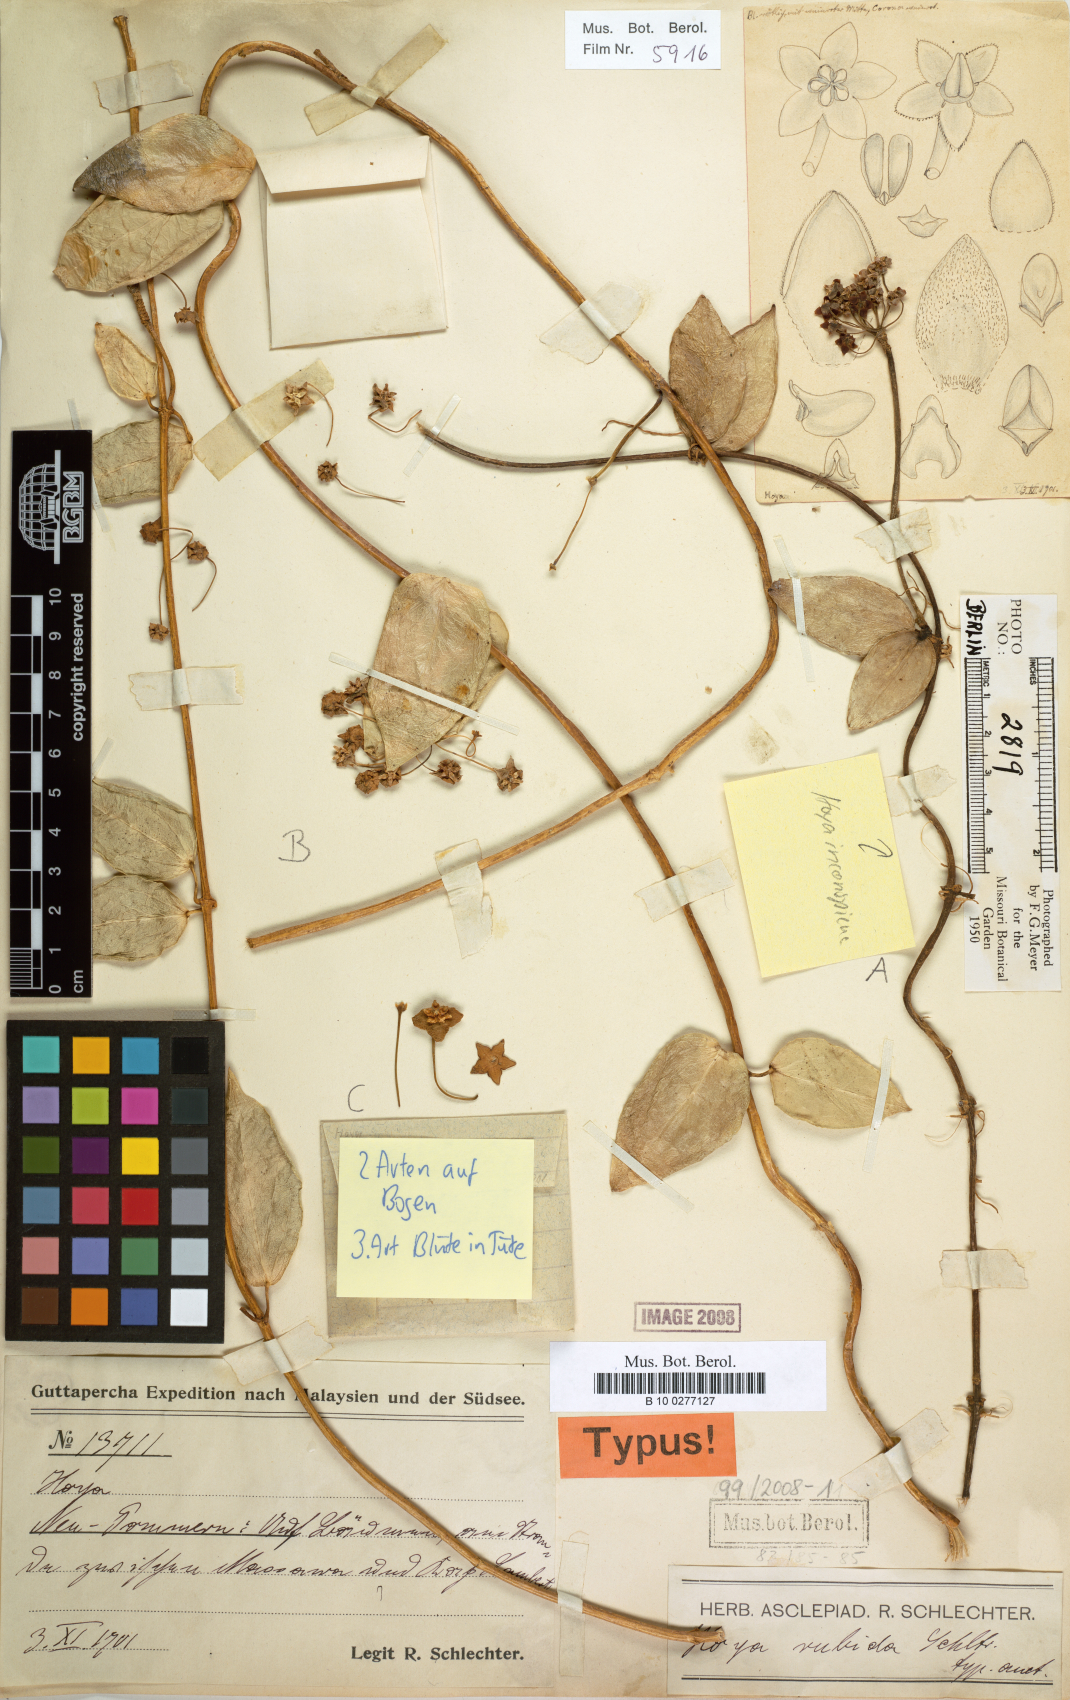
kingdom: Plantae
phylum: Tracheophyta
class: Magnoliopsida
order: Gentianales
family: Apocynaceae
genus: Hoya
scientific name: Hoya
